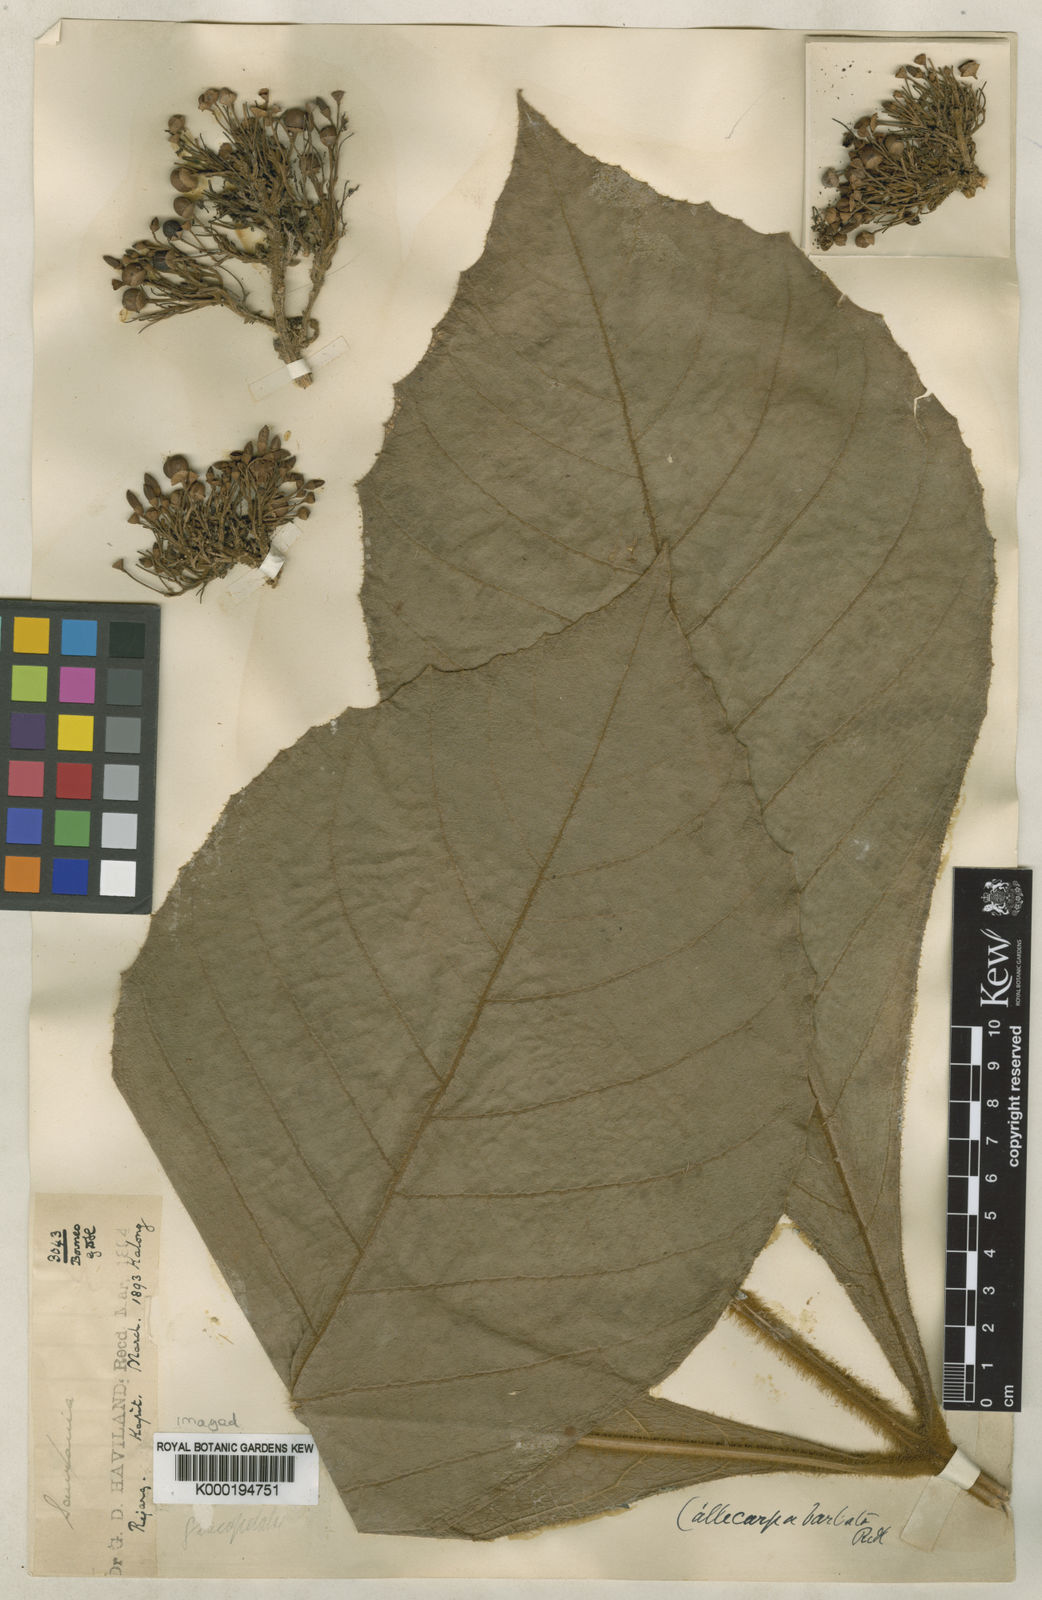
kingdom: Plantae
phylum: Tracheophyta
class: Magnoliopsida
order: Lamiales
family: Lamiaceae
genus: Callicarpa
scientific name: Callicarpa barbata
